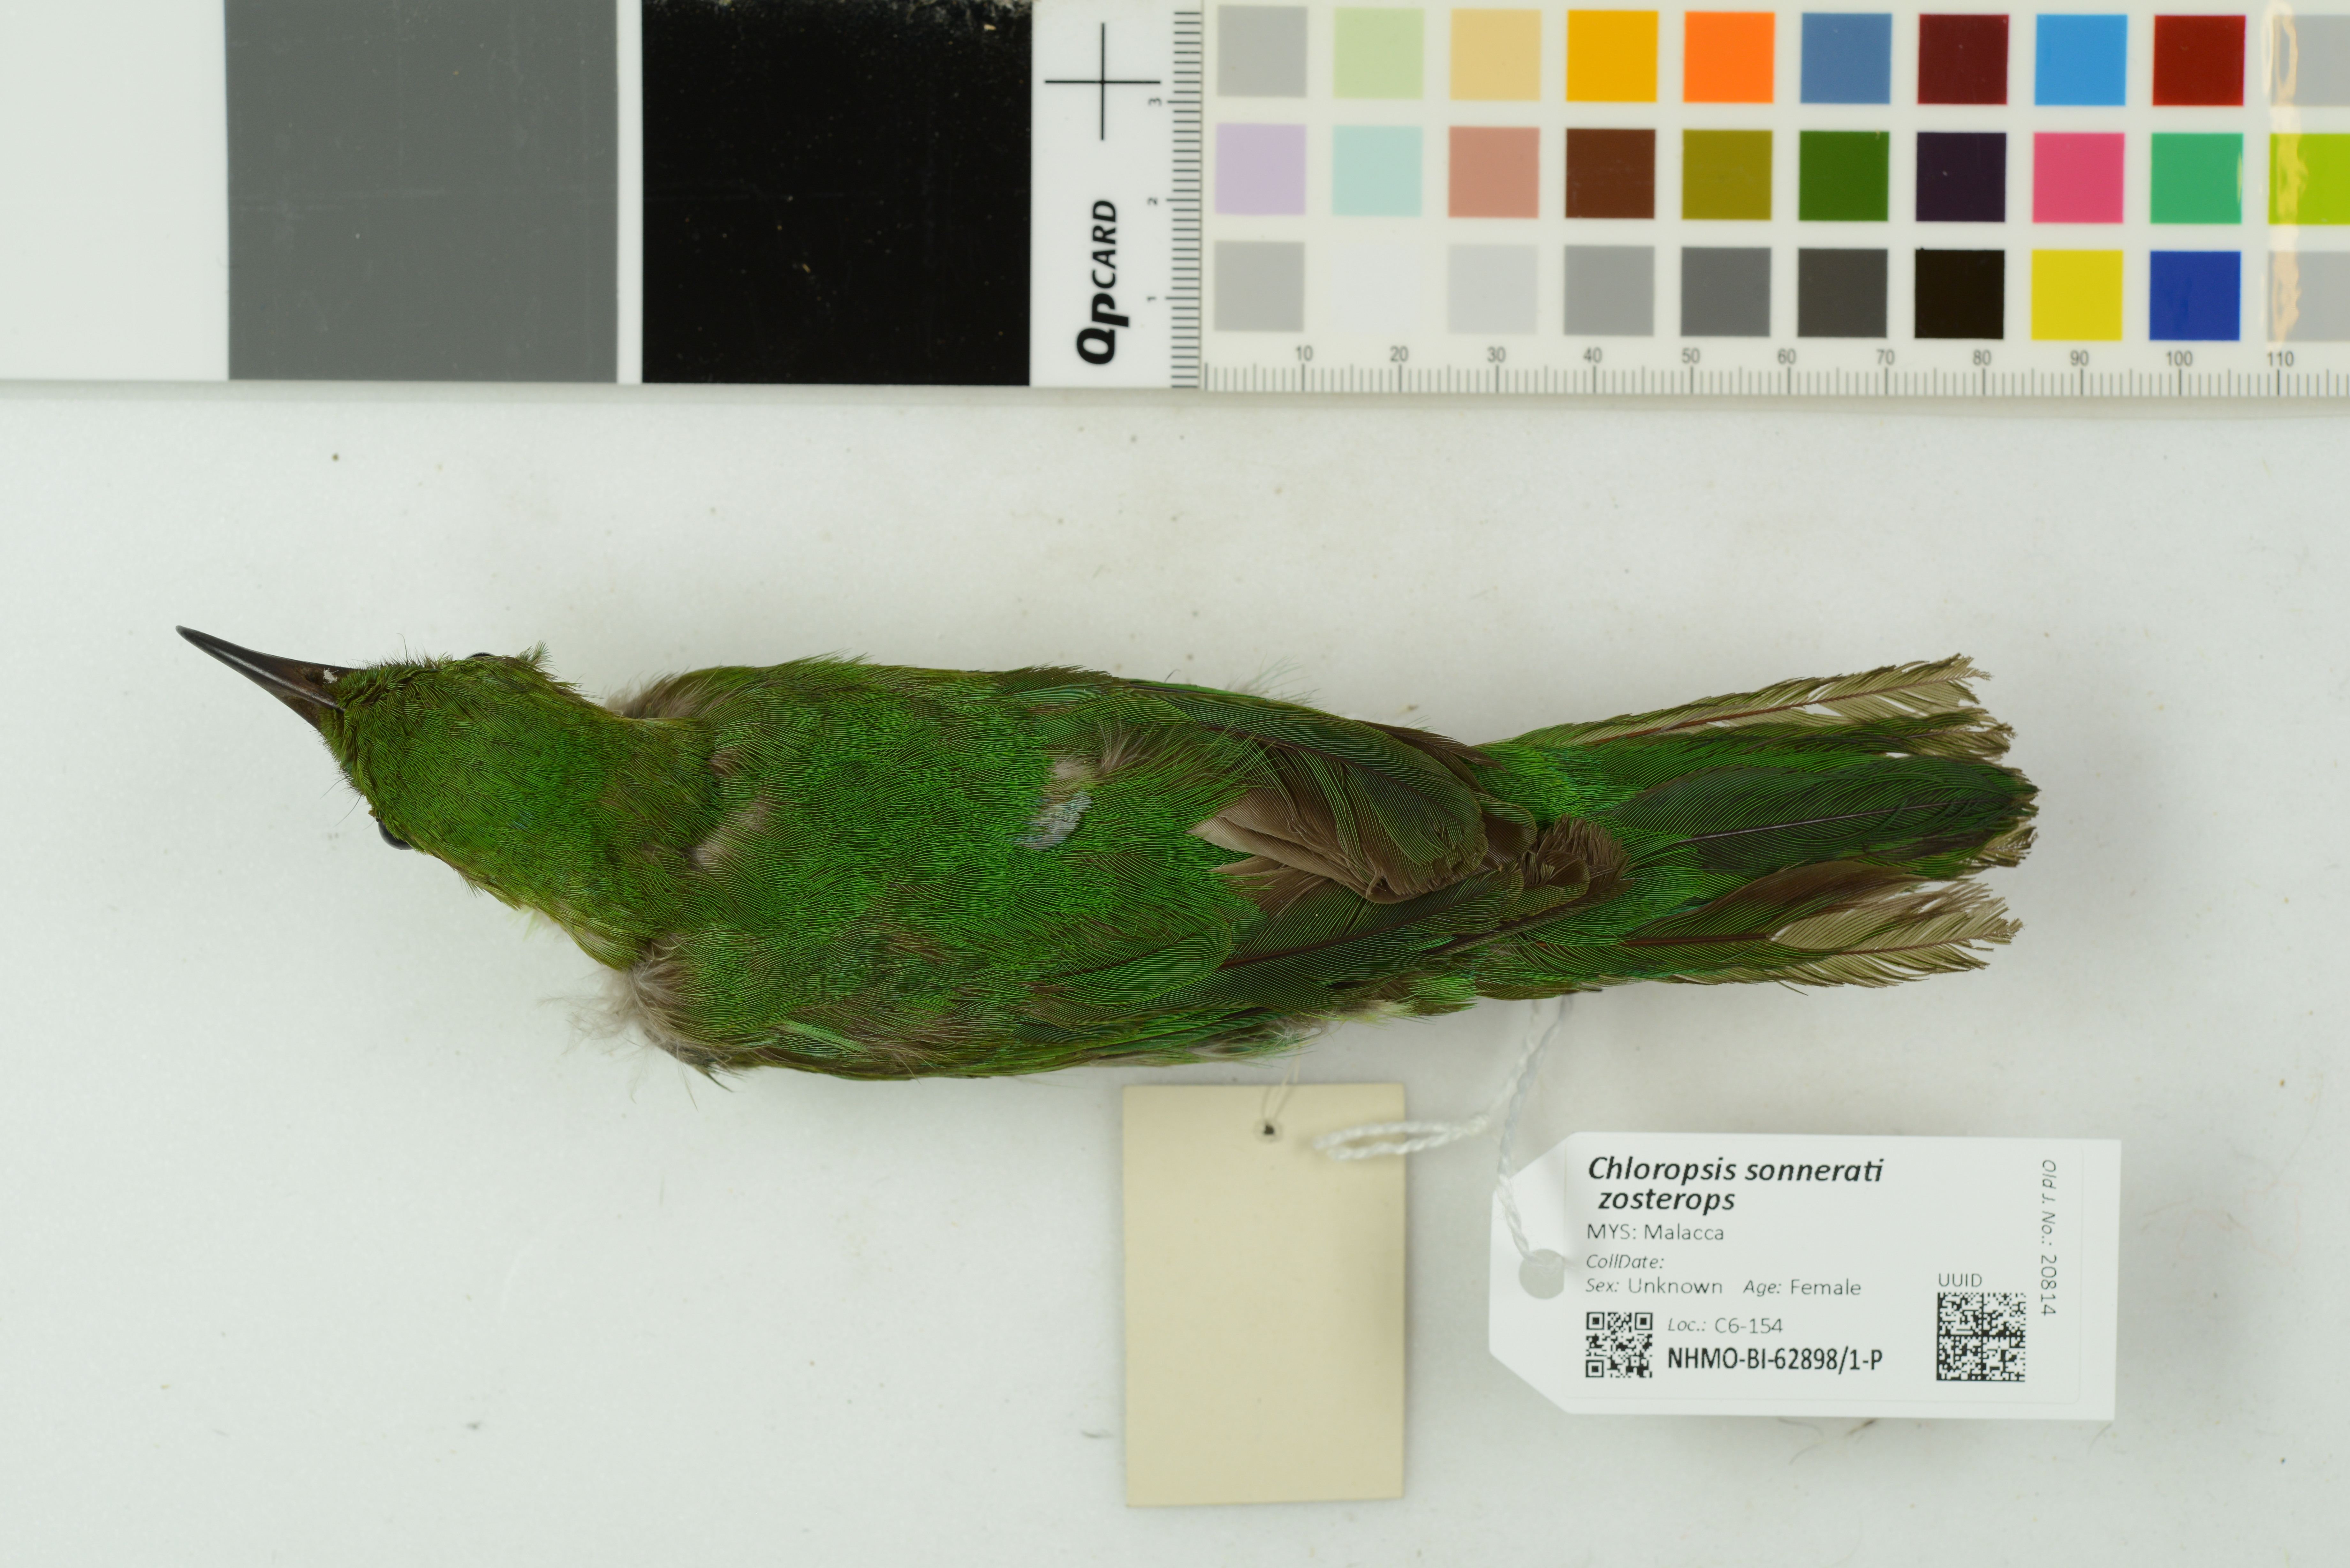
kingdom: Animalia
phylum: Chordata
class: Aves
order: Passeriformes
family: Chloropseidae
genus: Chloropsis
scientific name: Chloropsis sonnerati
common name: Greater green leafbird
